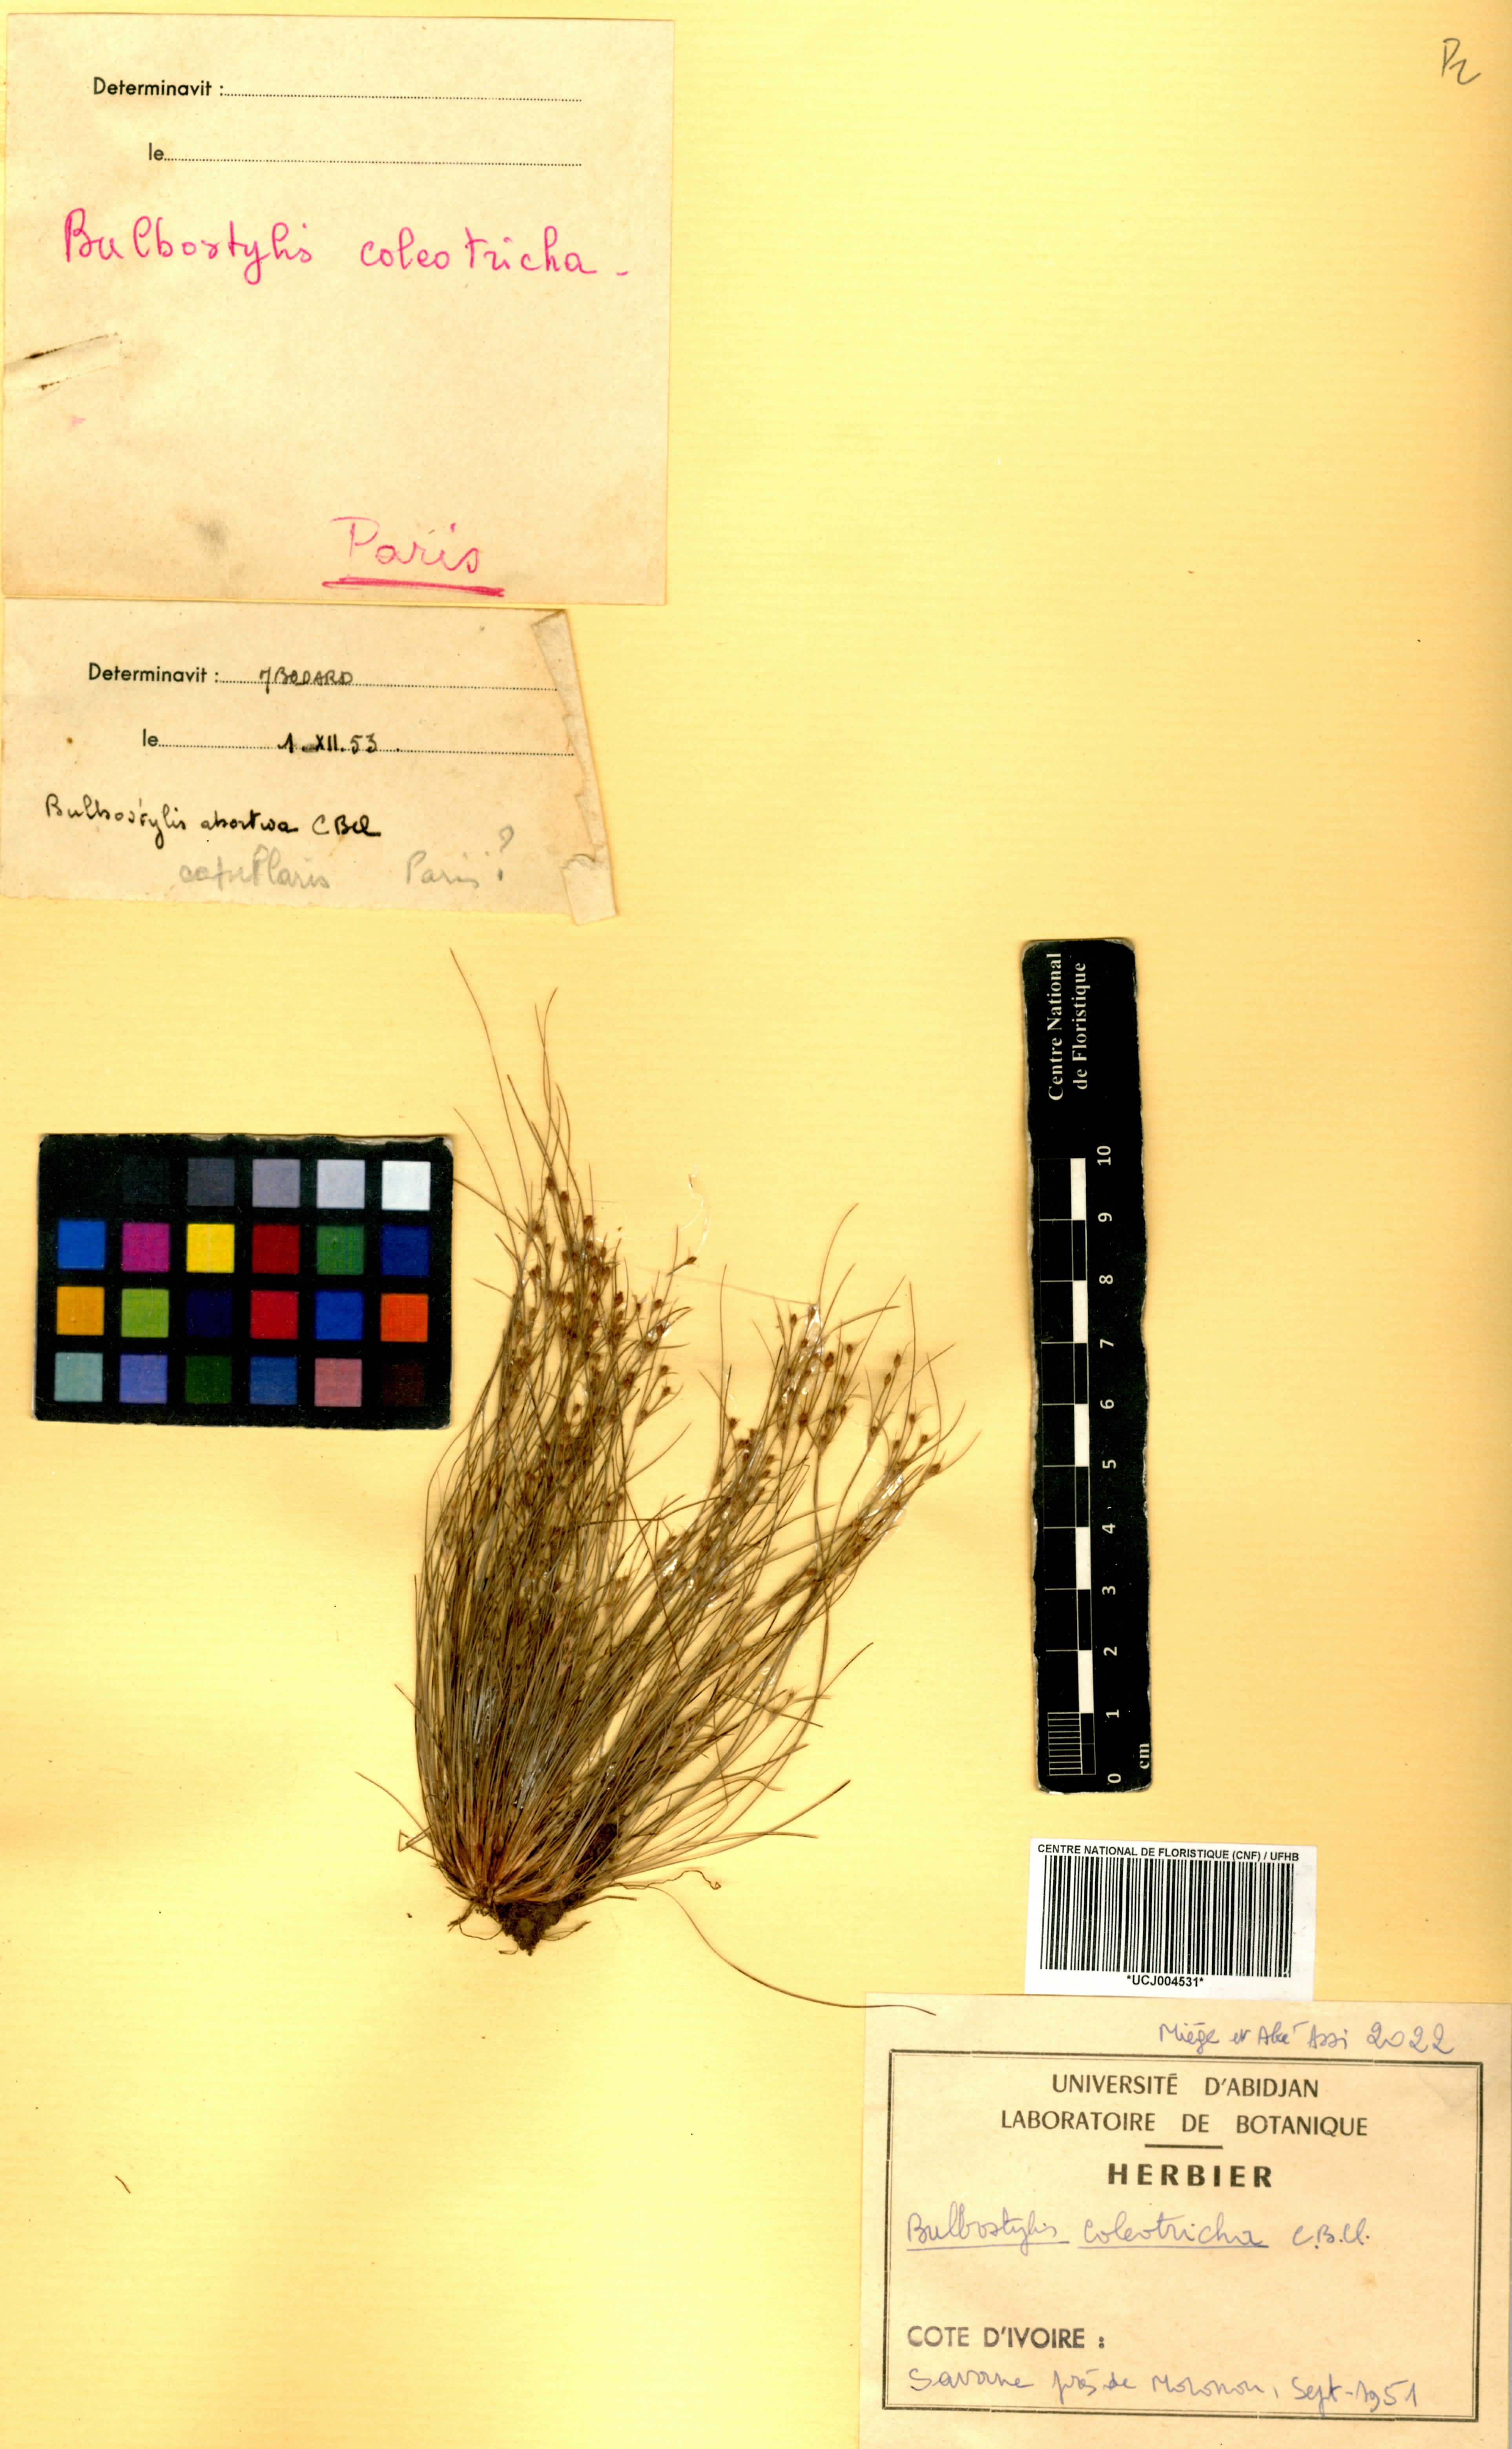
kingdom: Plantae
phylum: Tracheophyta
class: Liliopsida
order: Poales
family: Cyperaceae
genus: Bulbostylis
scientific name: Bulbostylis coleotricha
